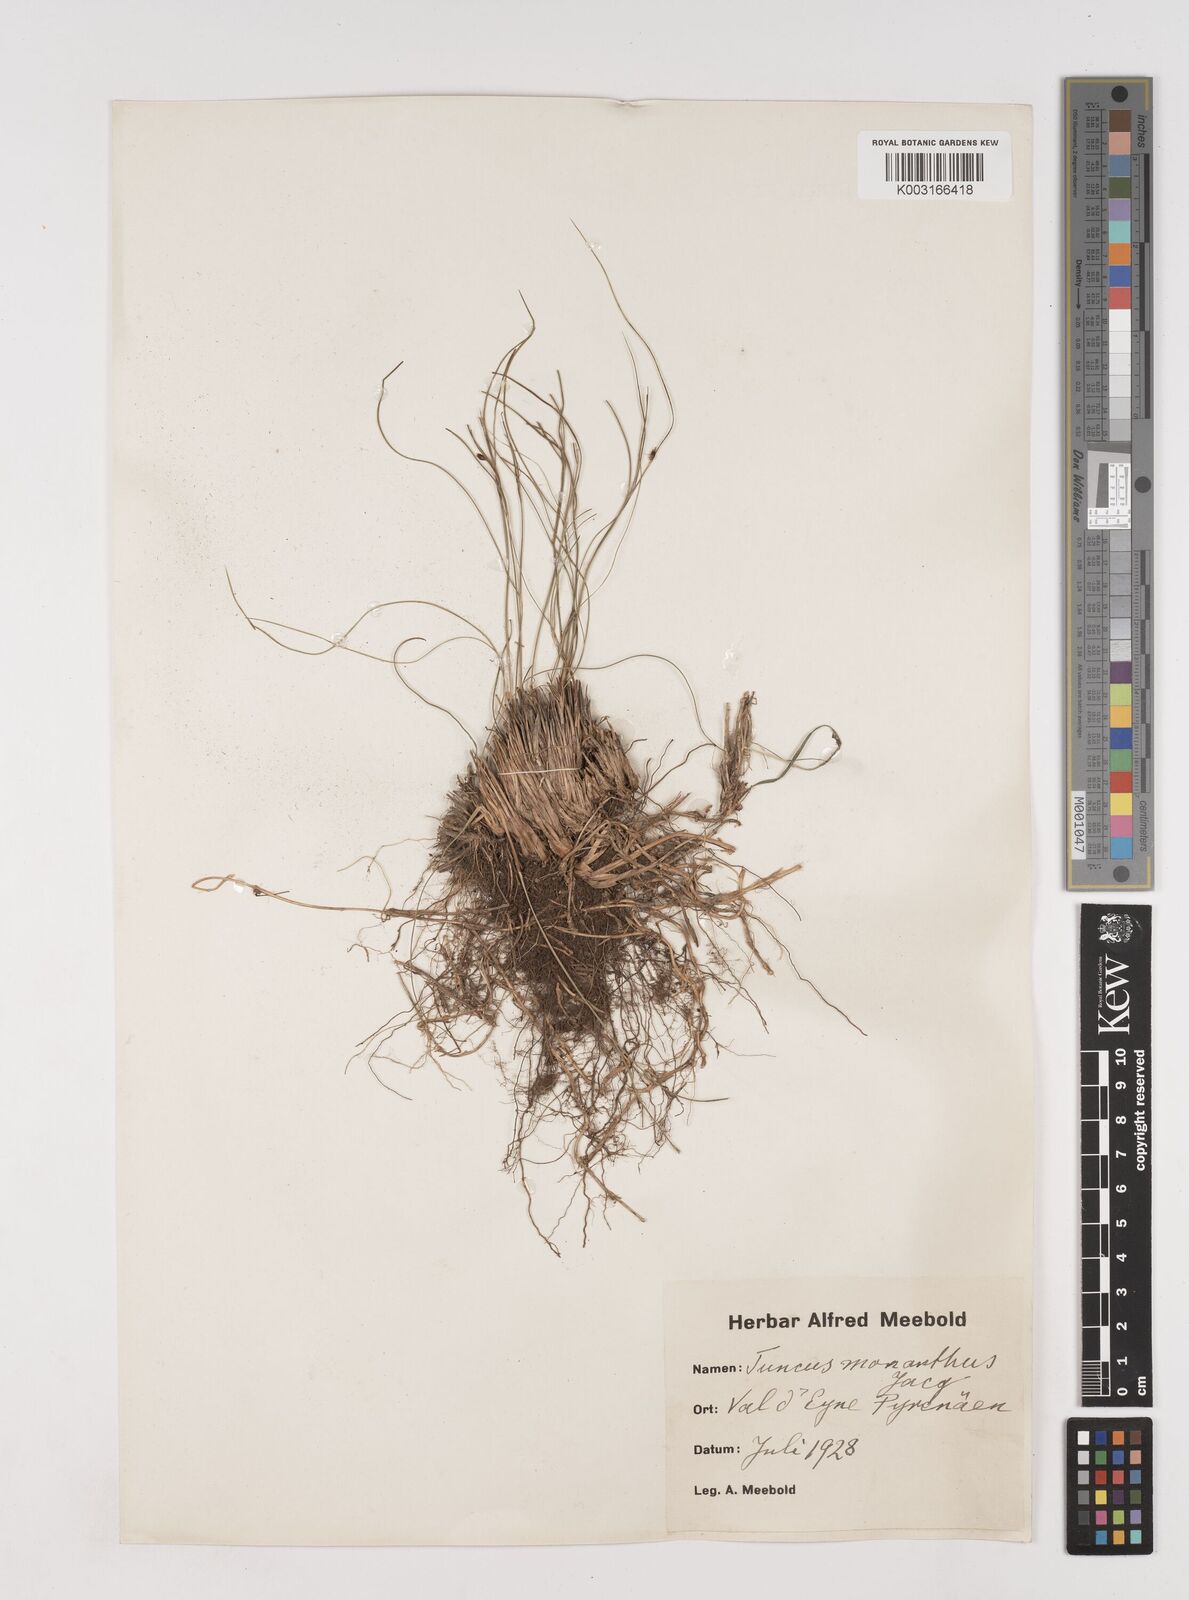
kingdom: Plantae
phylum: Tracheophyta
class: Liliopsida
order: Poales
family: Juncaceae
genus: Oreojuncus
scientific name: Oreojuncus trifidus
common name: Highland rush
